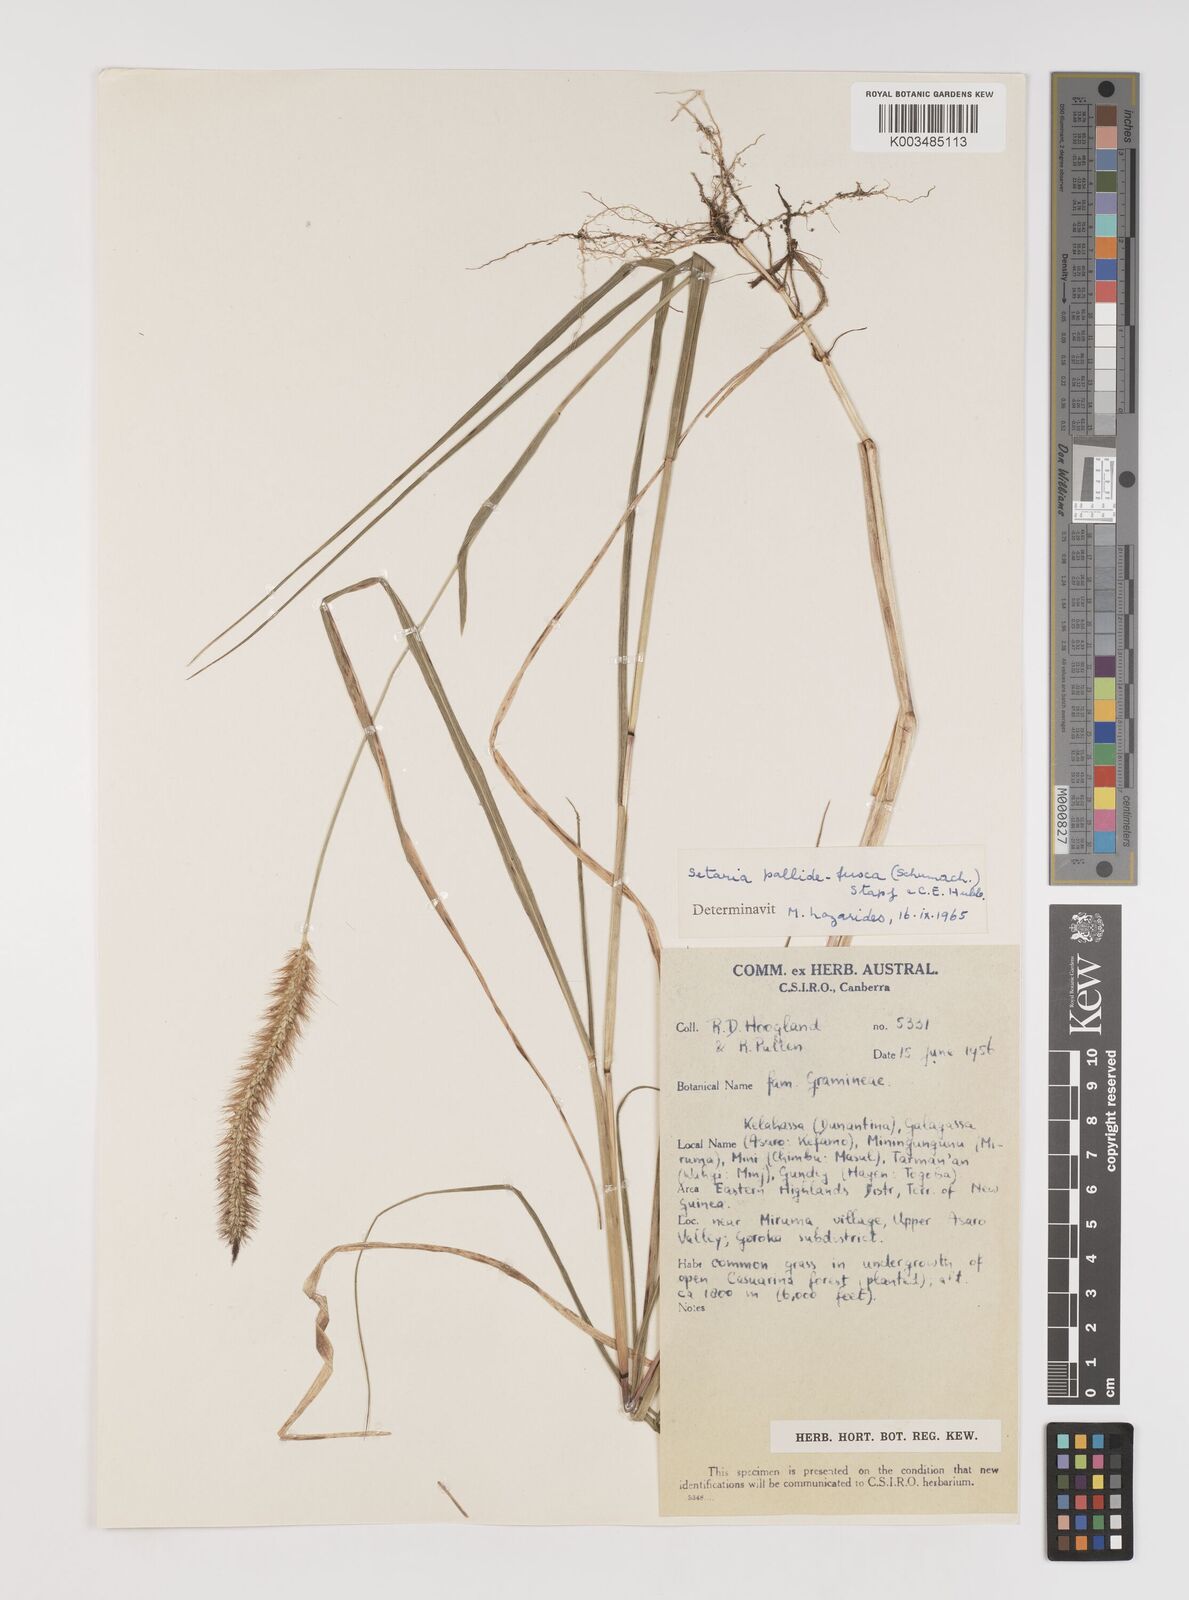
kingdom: Plantae
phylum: Tracheophyta
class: Liliopsida
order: Poales
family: Poaceae
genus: Setaria
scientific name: Setaria parviflora
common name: Knotroot bristle-grass
